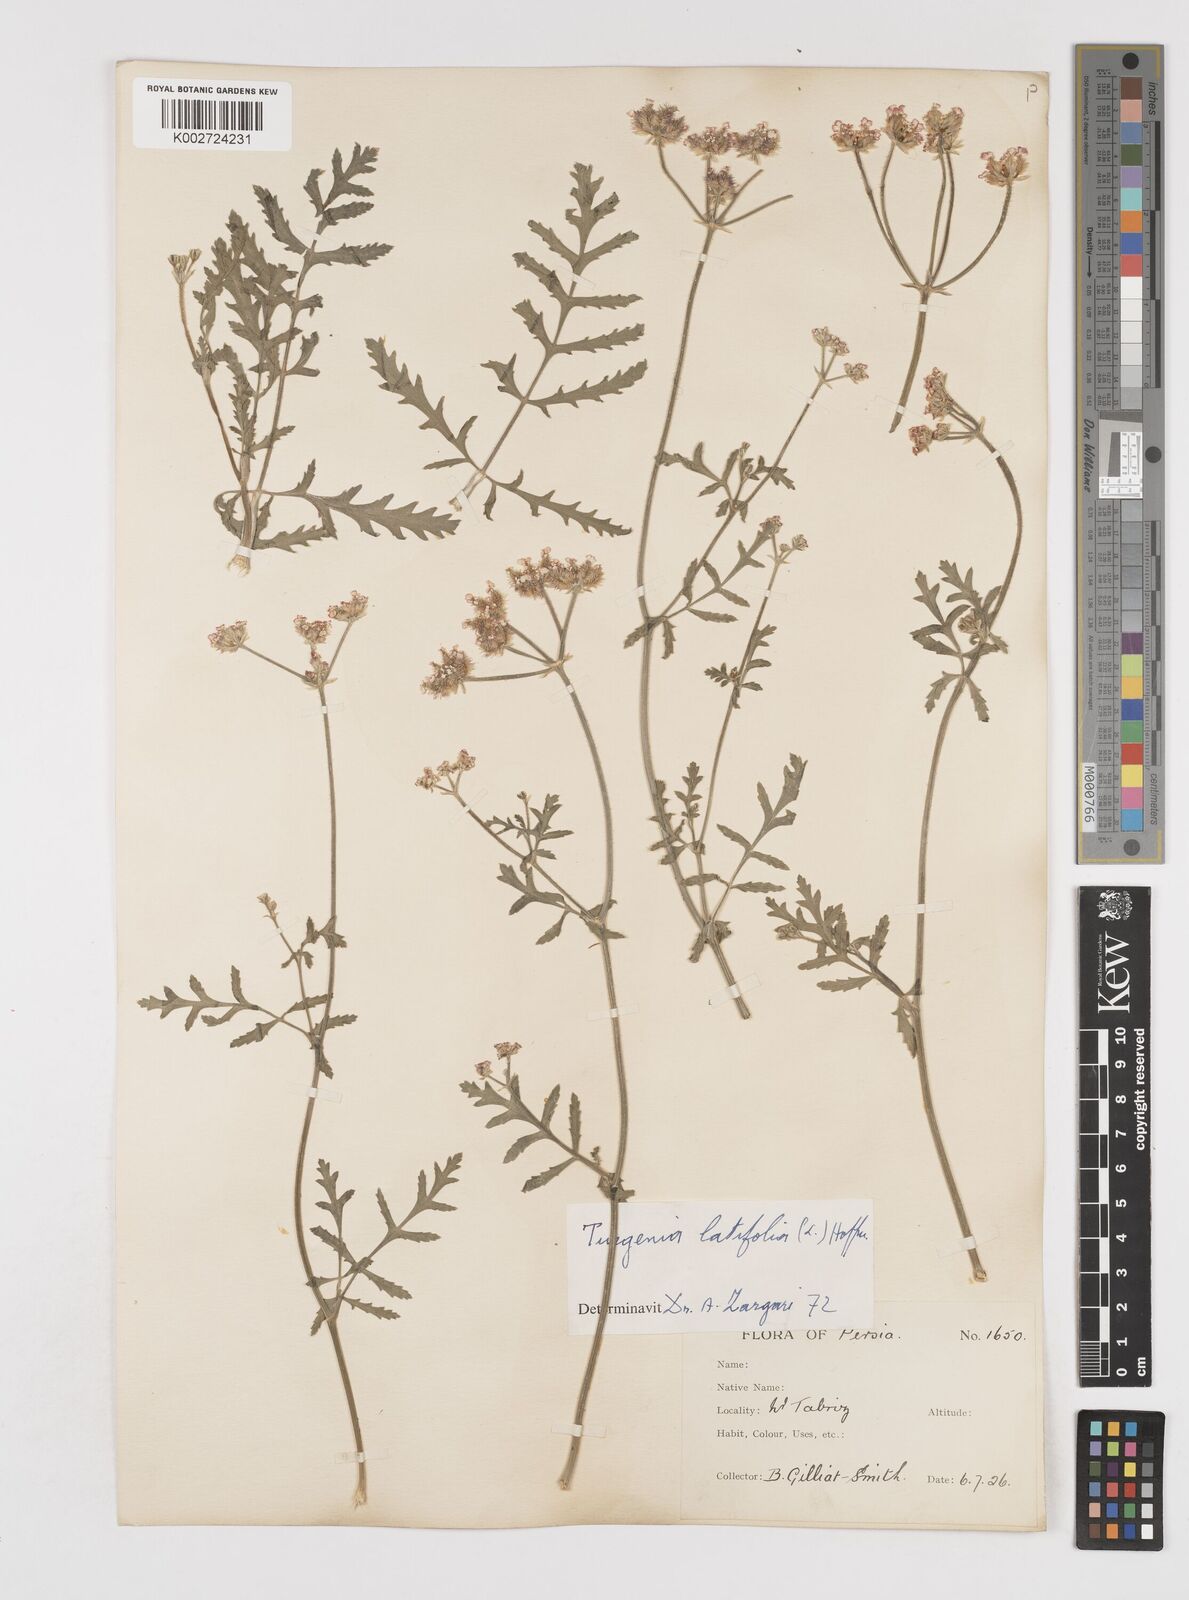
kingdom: Plantae
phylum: Tracheophyta
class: Magnoliopsida
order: Apiales
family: Apiaceae
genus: Turgenia
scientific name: Turgenia latifolia
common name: Greater bur-parsley
